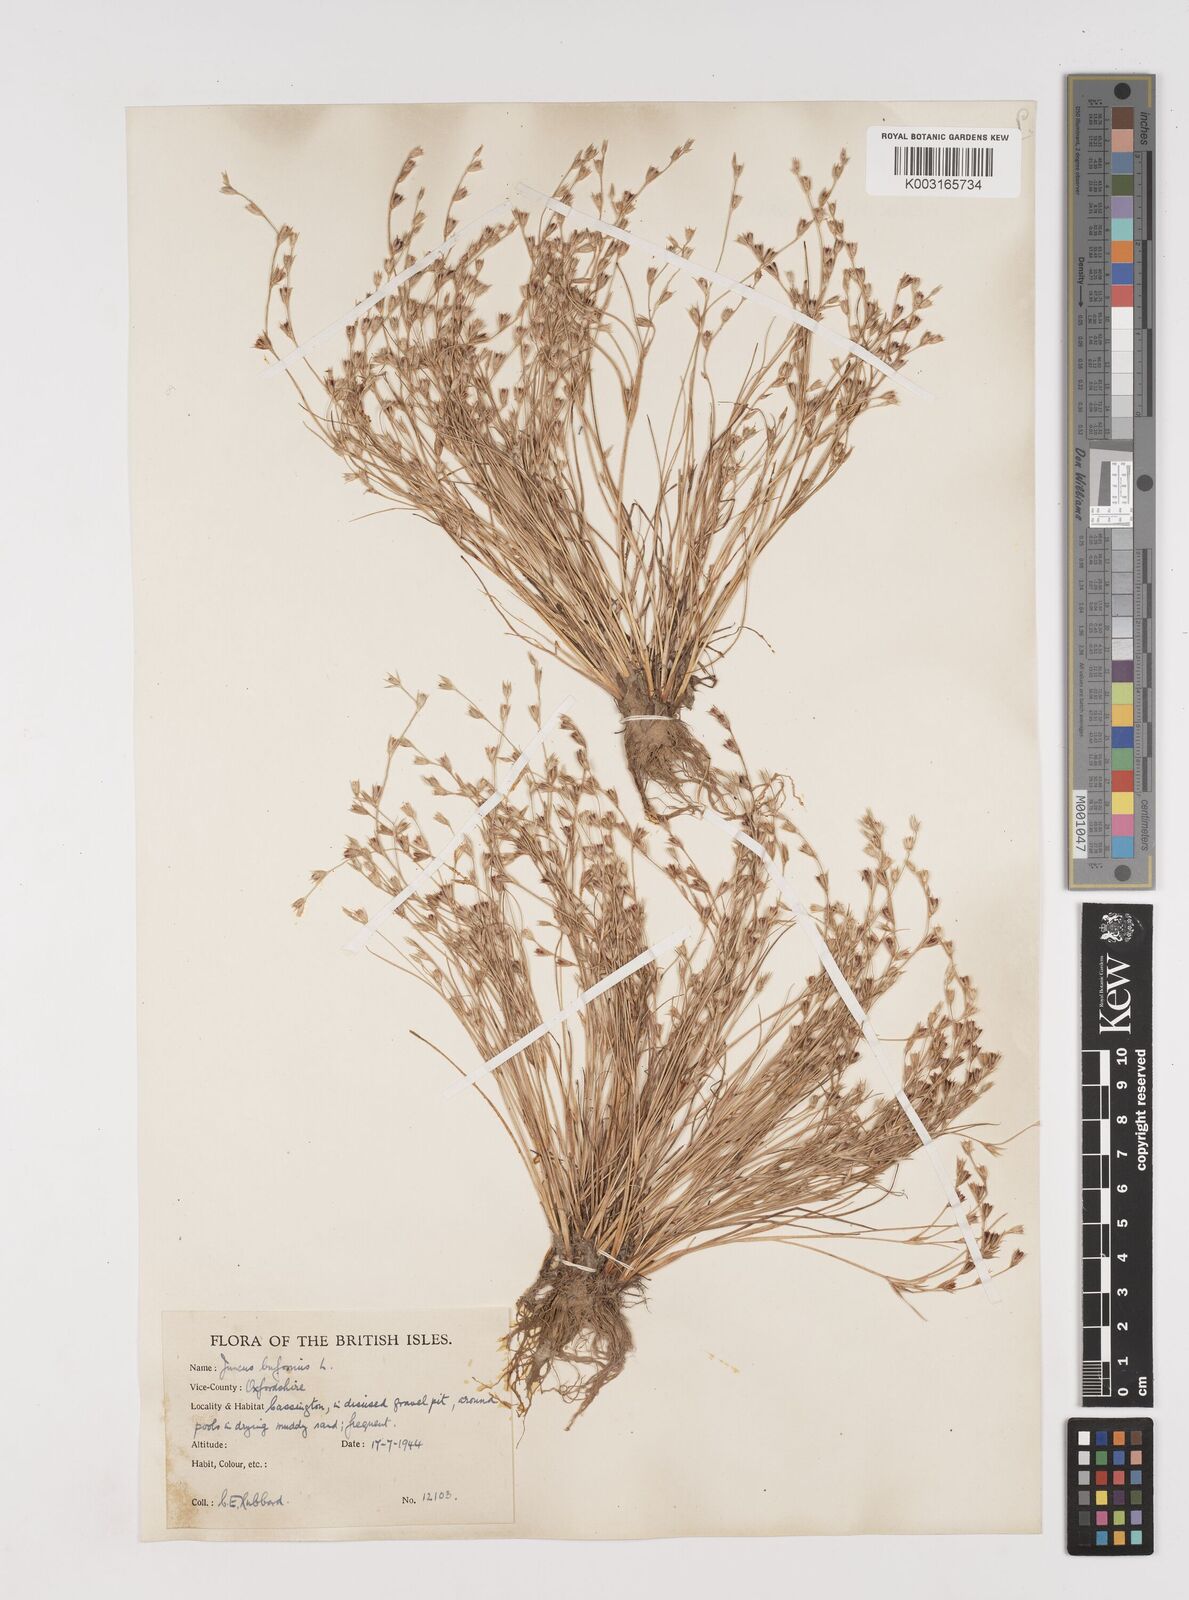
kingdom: Plantae
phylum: Tracheophyta
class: Liliopsida
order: Poales
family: Juncaceae
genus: Juncus
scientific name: Juncus bufonius
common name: Toad rush
